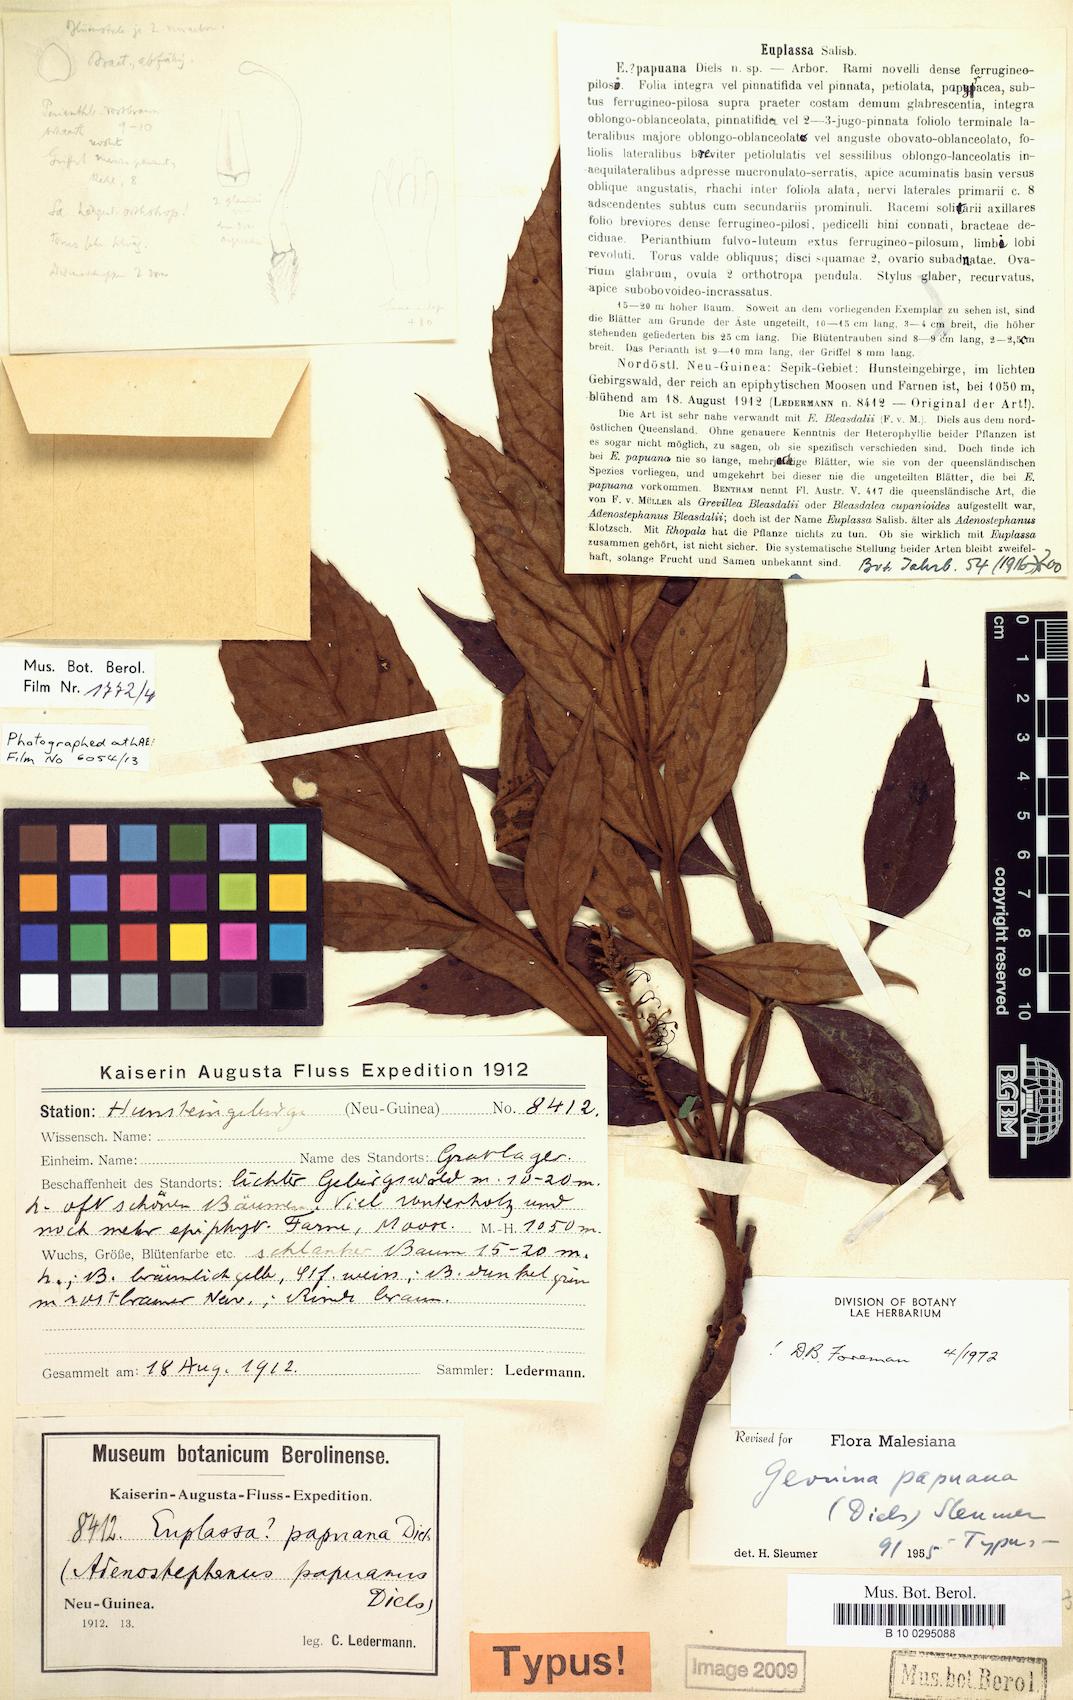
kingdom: Plantae
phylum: Tracheophyta
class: Magnoliopsida
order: Proteales
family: Proteaceae
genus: Turrillia
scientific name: Turrillia papuana
